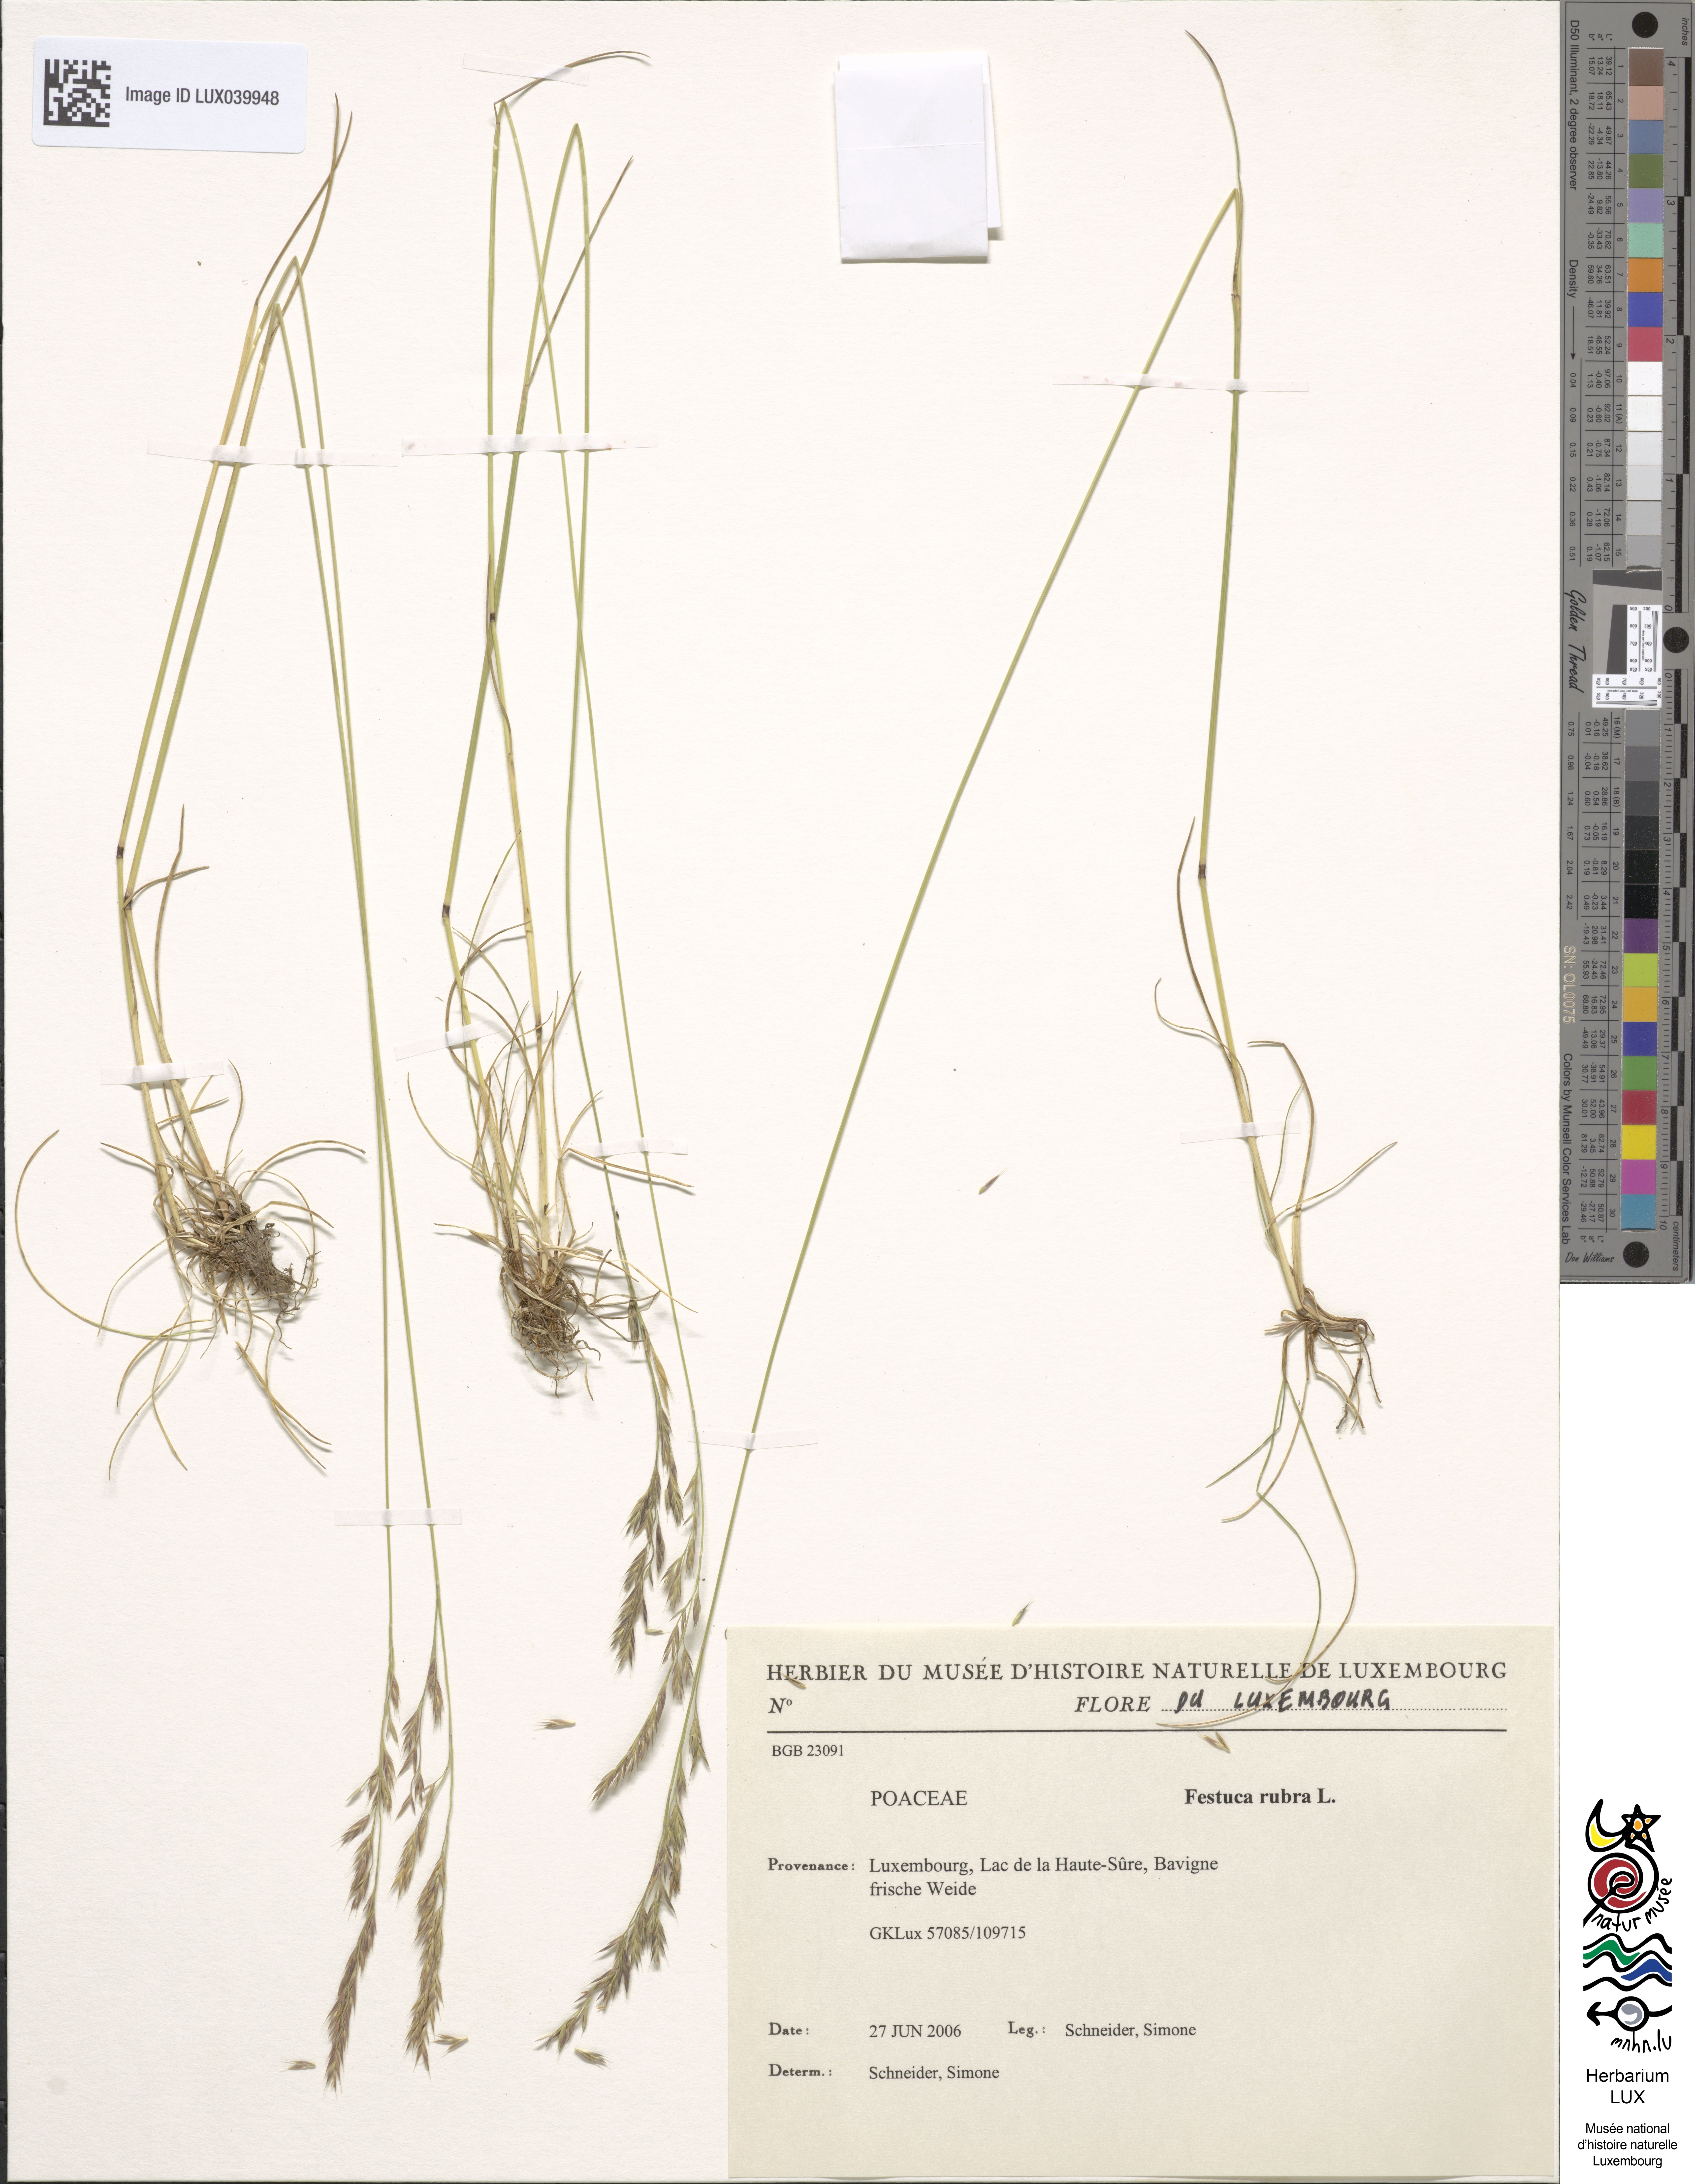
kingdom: Plantae
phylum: Tracheophyta
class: Liliopsida
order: Poales
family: Poaceae
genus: Festuca
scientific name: Festuca rubra
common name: Red fescue
